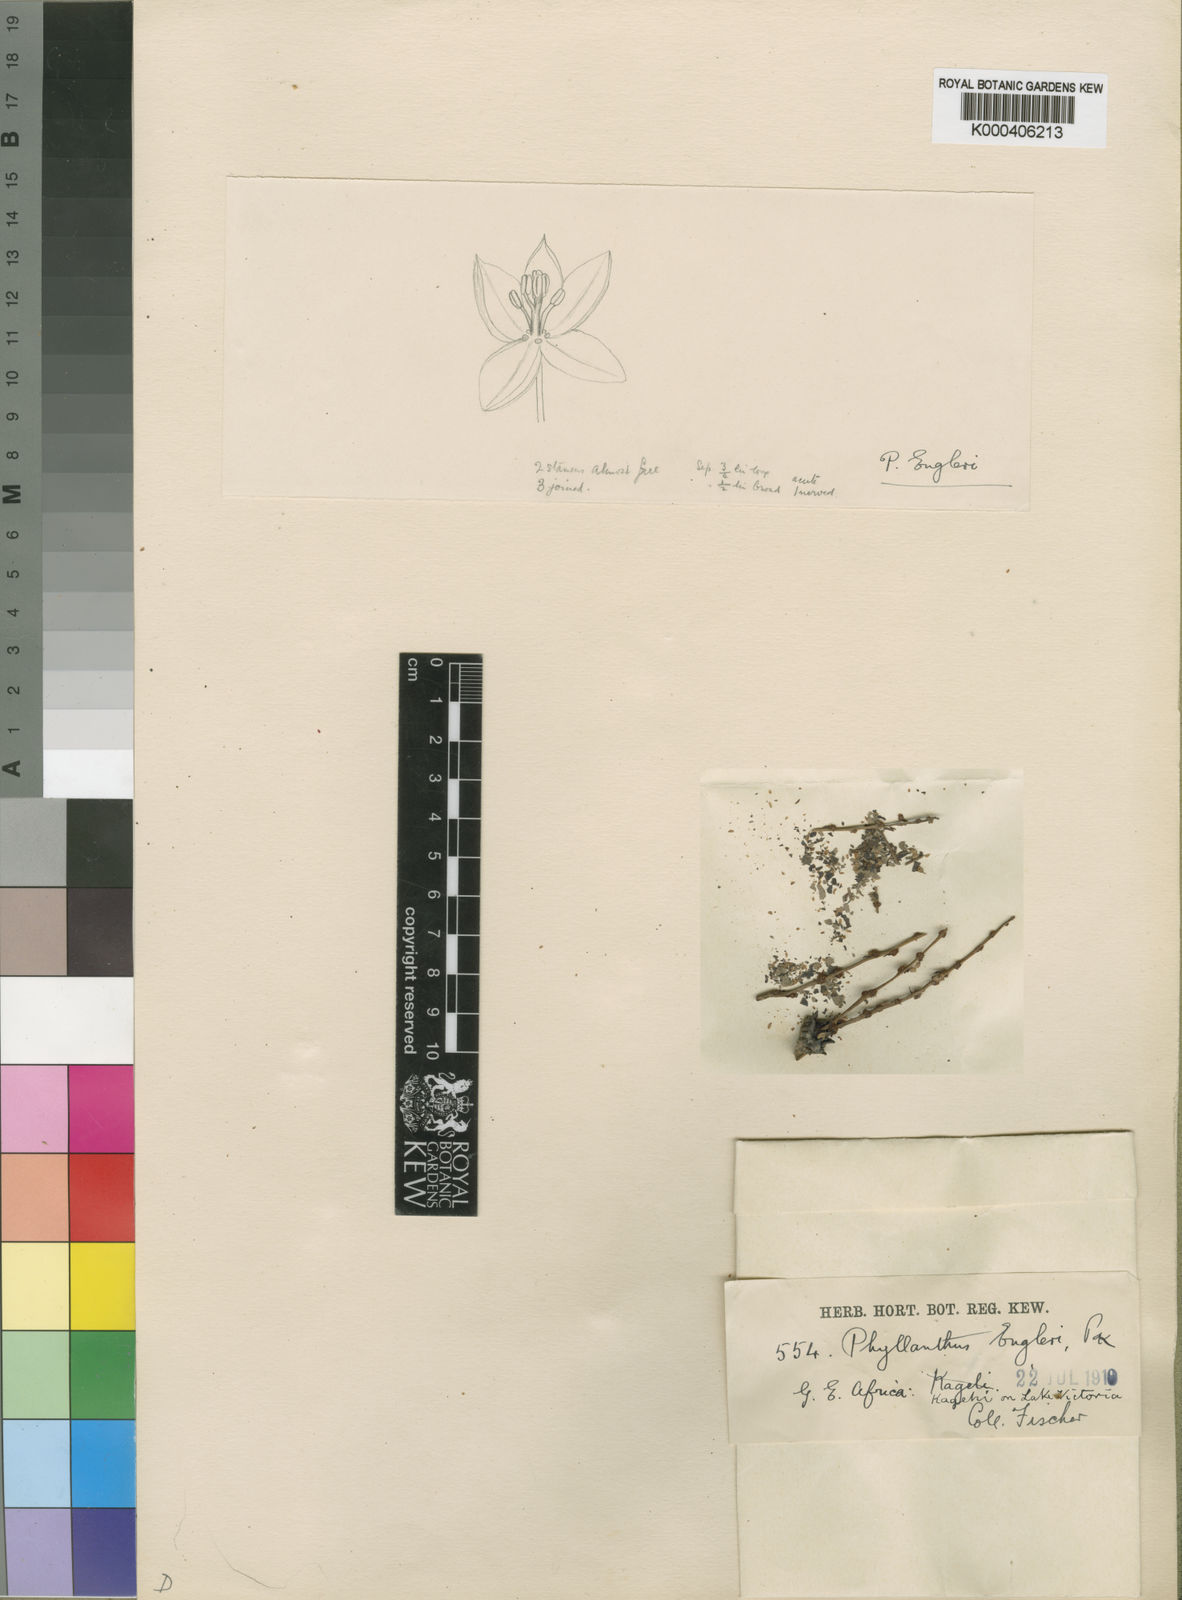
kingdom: Plantae
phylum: Tracheophyta
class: Magnoliopsida
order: Malpighiales
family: Phyllanthaceae
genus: Phyllanthus
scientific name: Phyllanthus engleri
